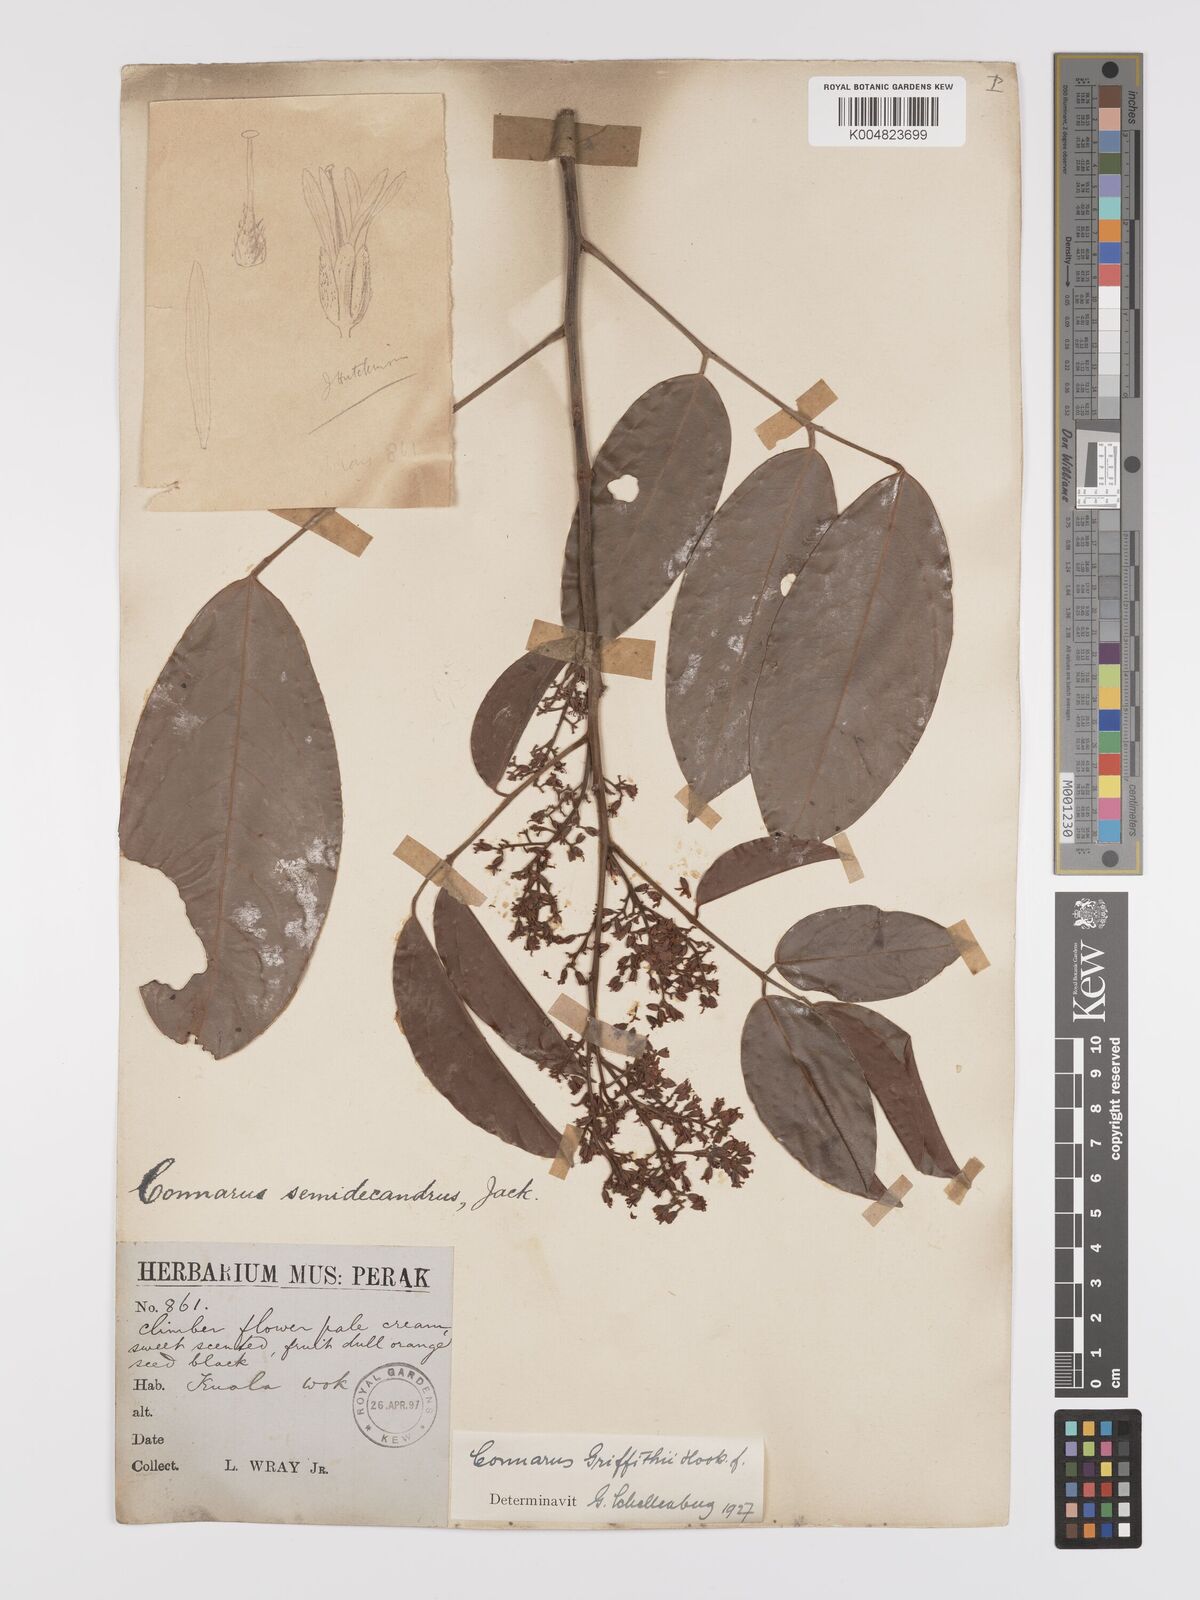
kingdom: Plantae
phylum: Tracheophyta
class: Magnoliopsida
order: Oxalidales
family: Connaraceae
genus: Connarus
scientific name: Connarus semidecandrus
